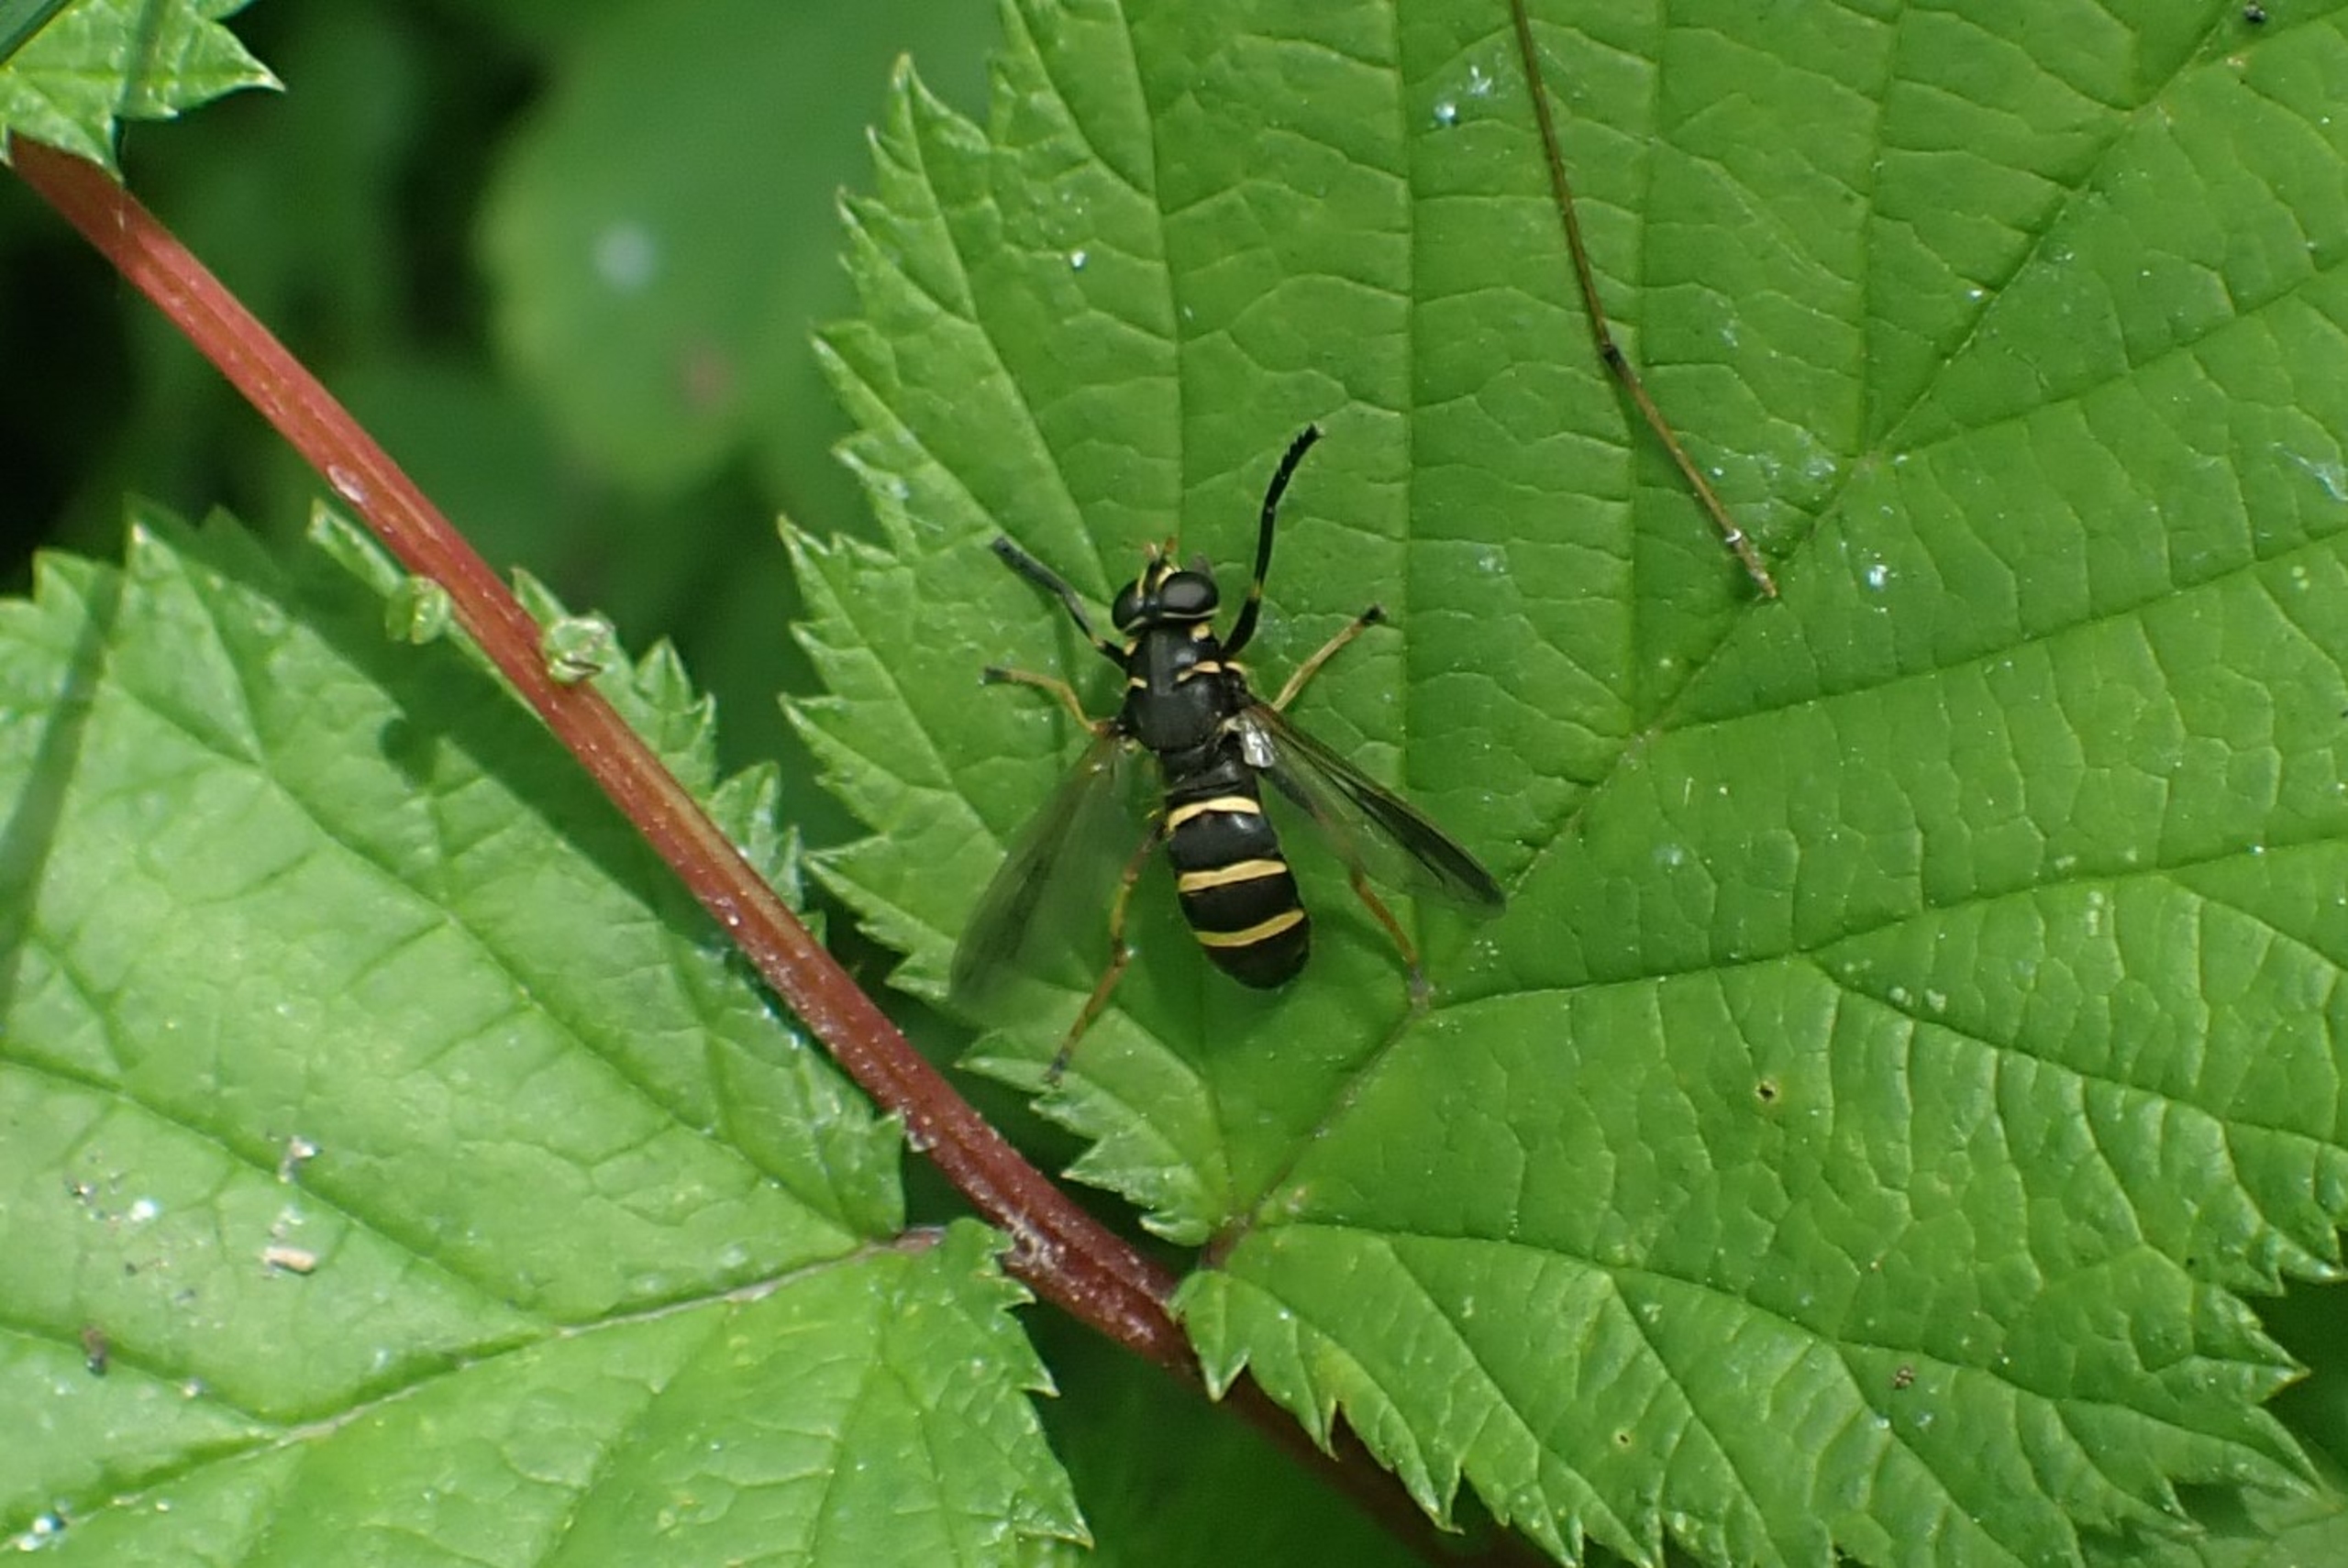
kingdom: Animalia
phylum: Arthropoda
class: Insecta
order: Diptera
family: Syrphidae
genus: Temnostoma
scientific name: Temnostoma bombylans
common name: Sort vedsvirreflue
